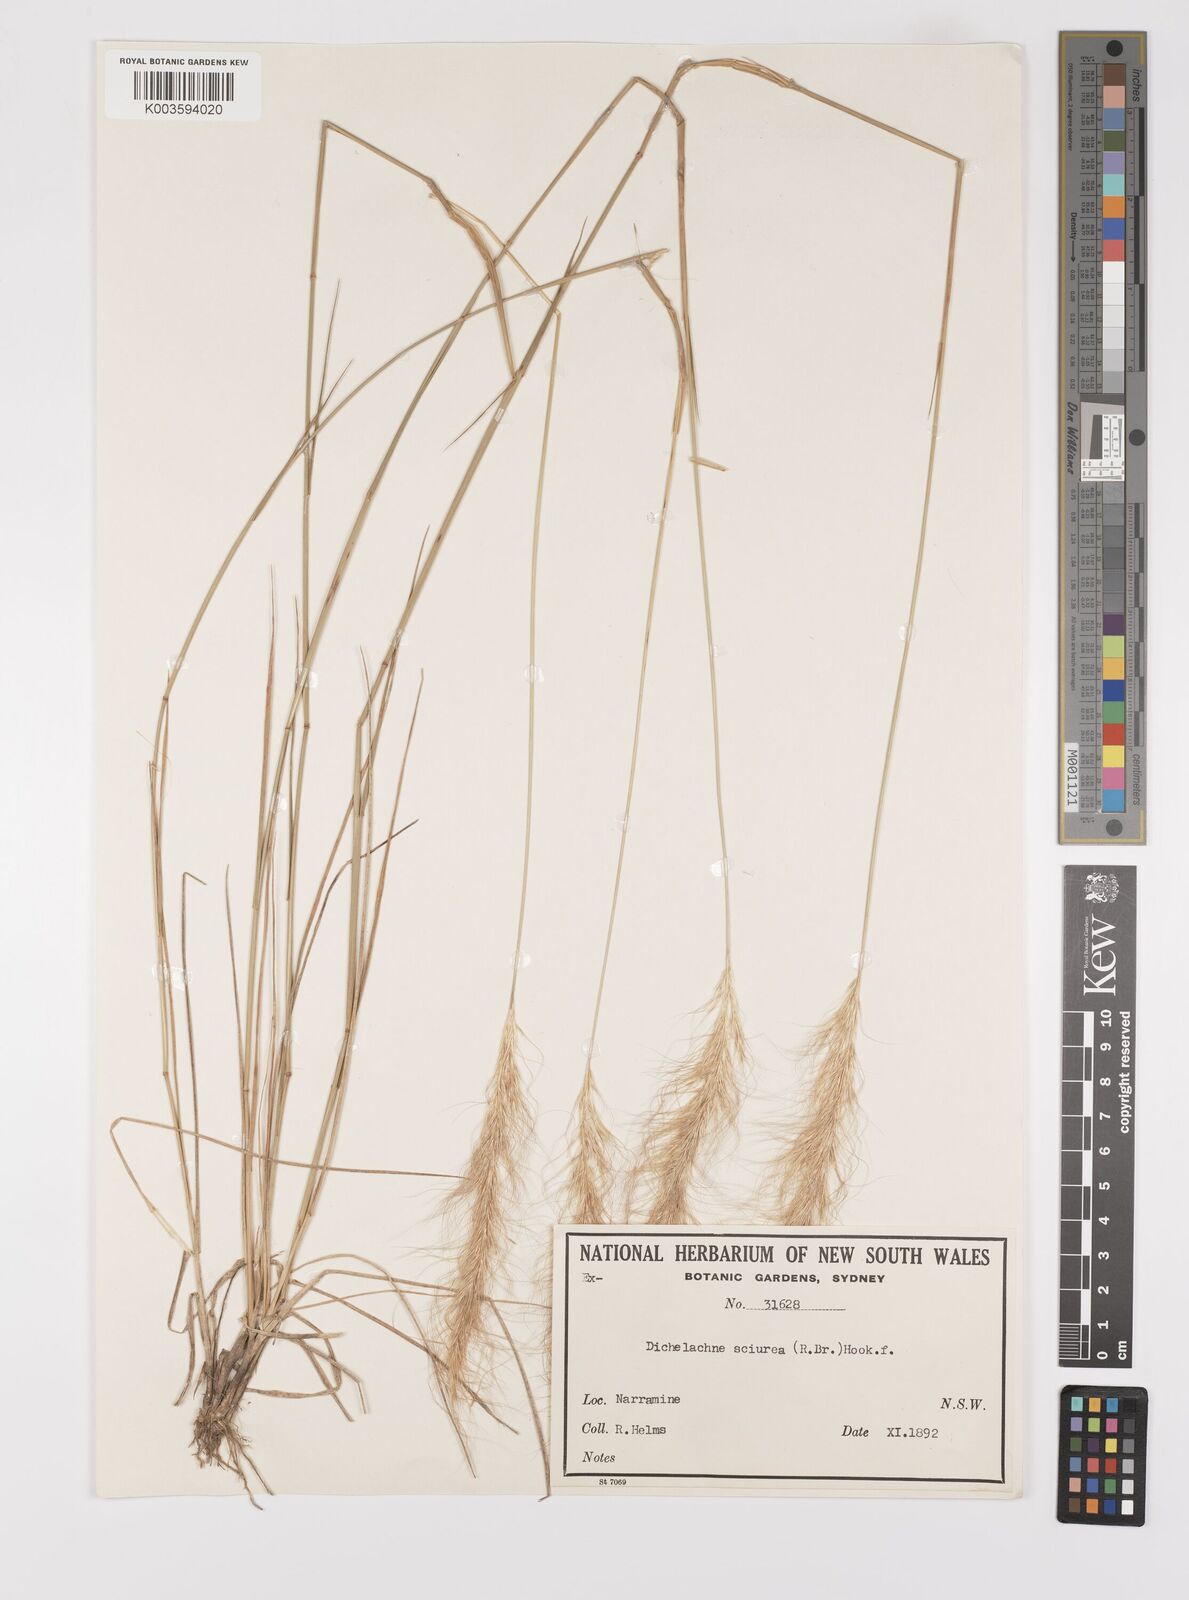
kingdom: Plantae
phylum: Tracheophyta
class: Liliopsida
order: Poales
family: Poaceae
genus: Dichelachne
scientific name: Dichelachne micrantha
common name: Plumegrass
